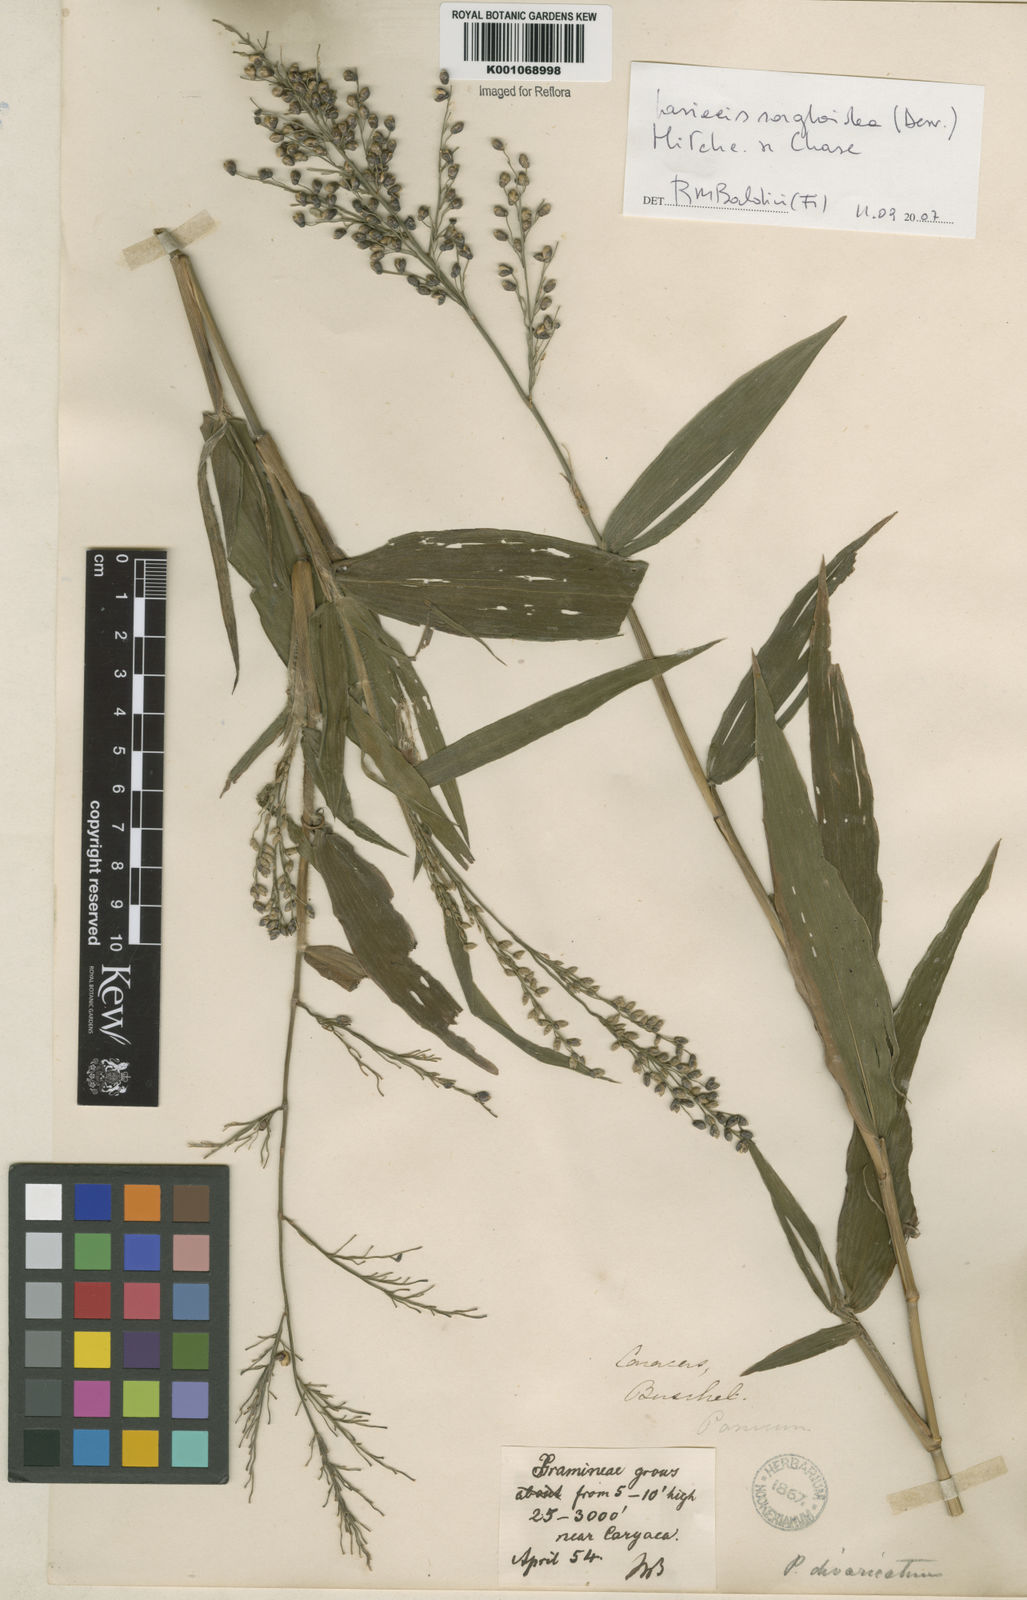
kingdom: Plantae
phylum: Tracheophyta
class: Liliopsida
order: Poales
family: Poaceae
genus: Lasiacis
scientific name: Lasiacis maculata
